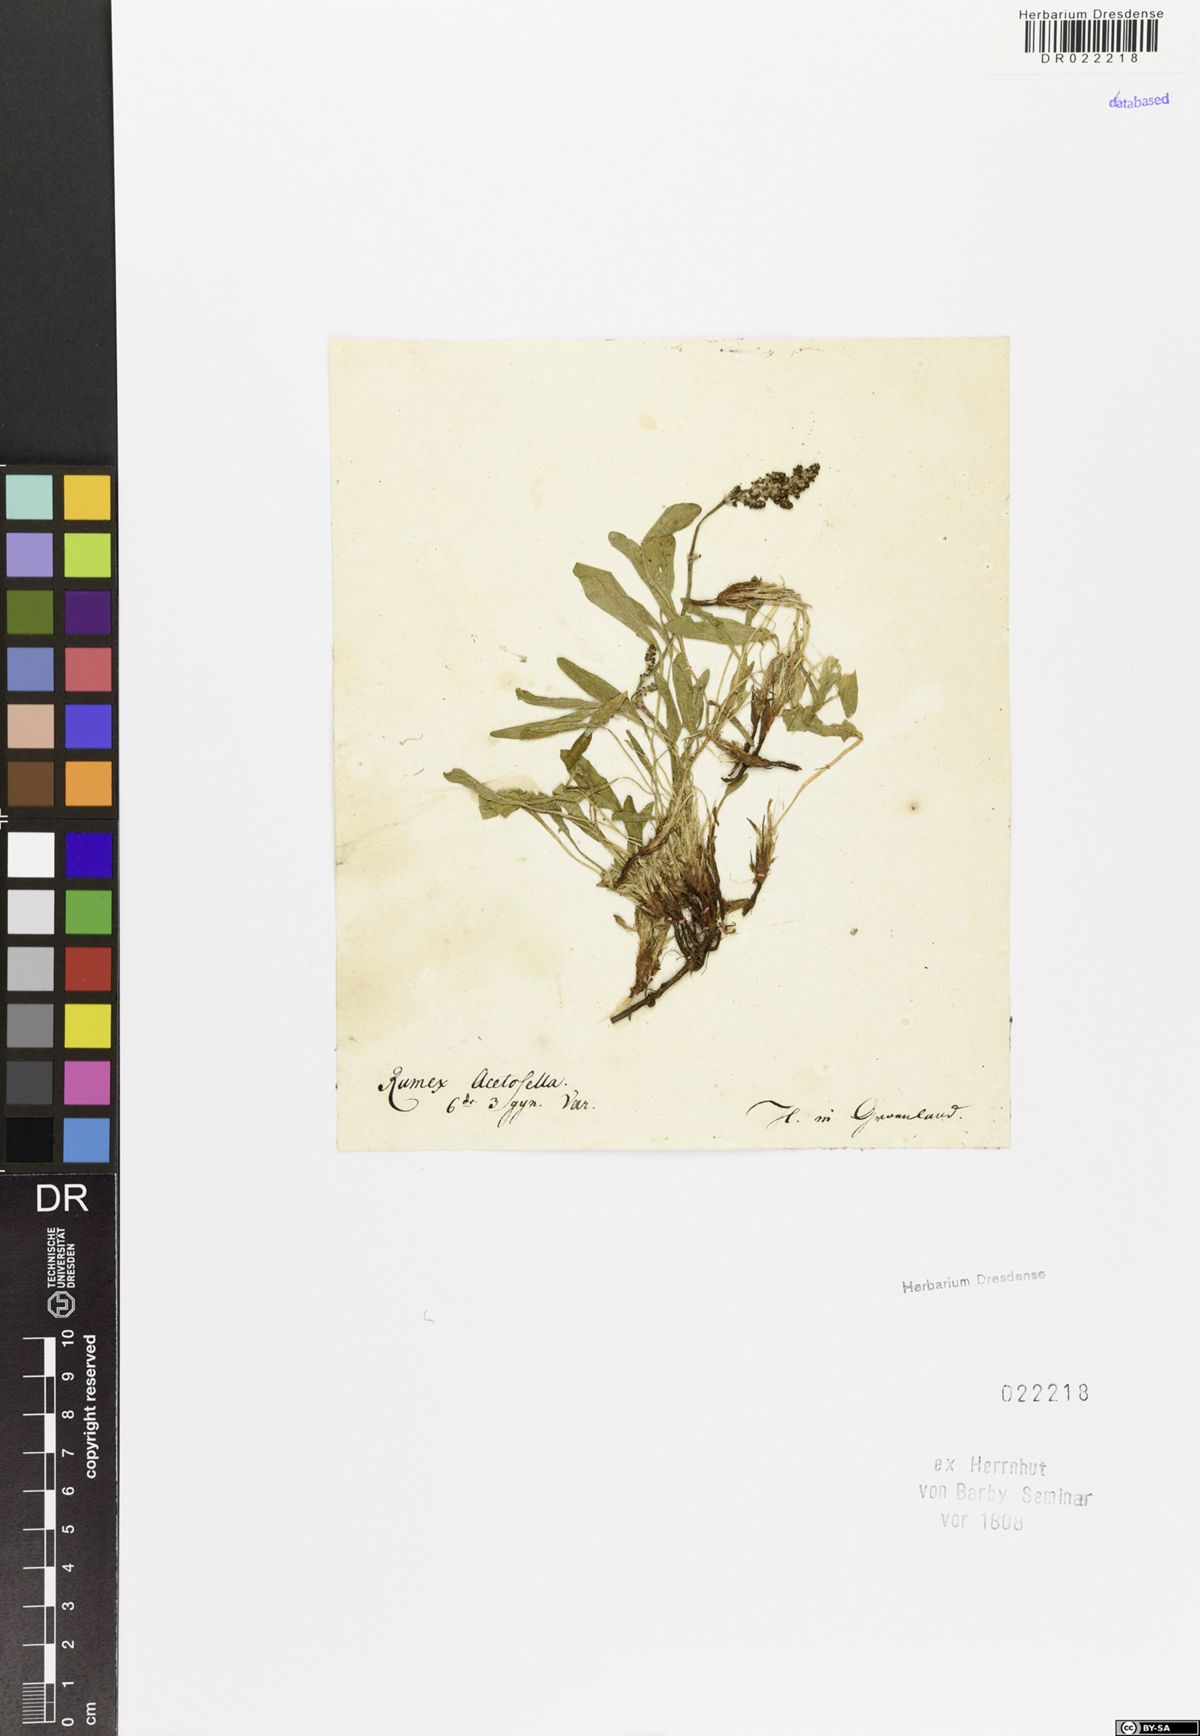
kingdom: Plantae
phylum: Tracheophyta
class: Magnoliopsida
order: Caryophyllales
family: Polygonaceae
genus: Rumex
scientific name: Rumex acetosella
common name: Common sheep sorrel
